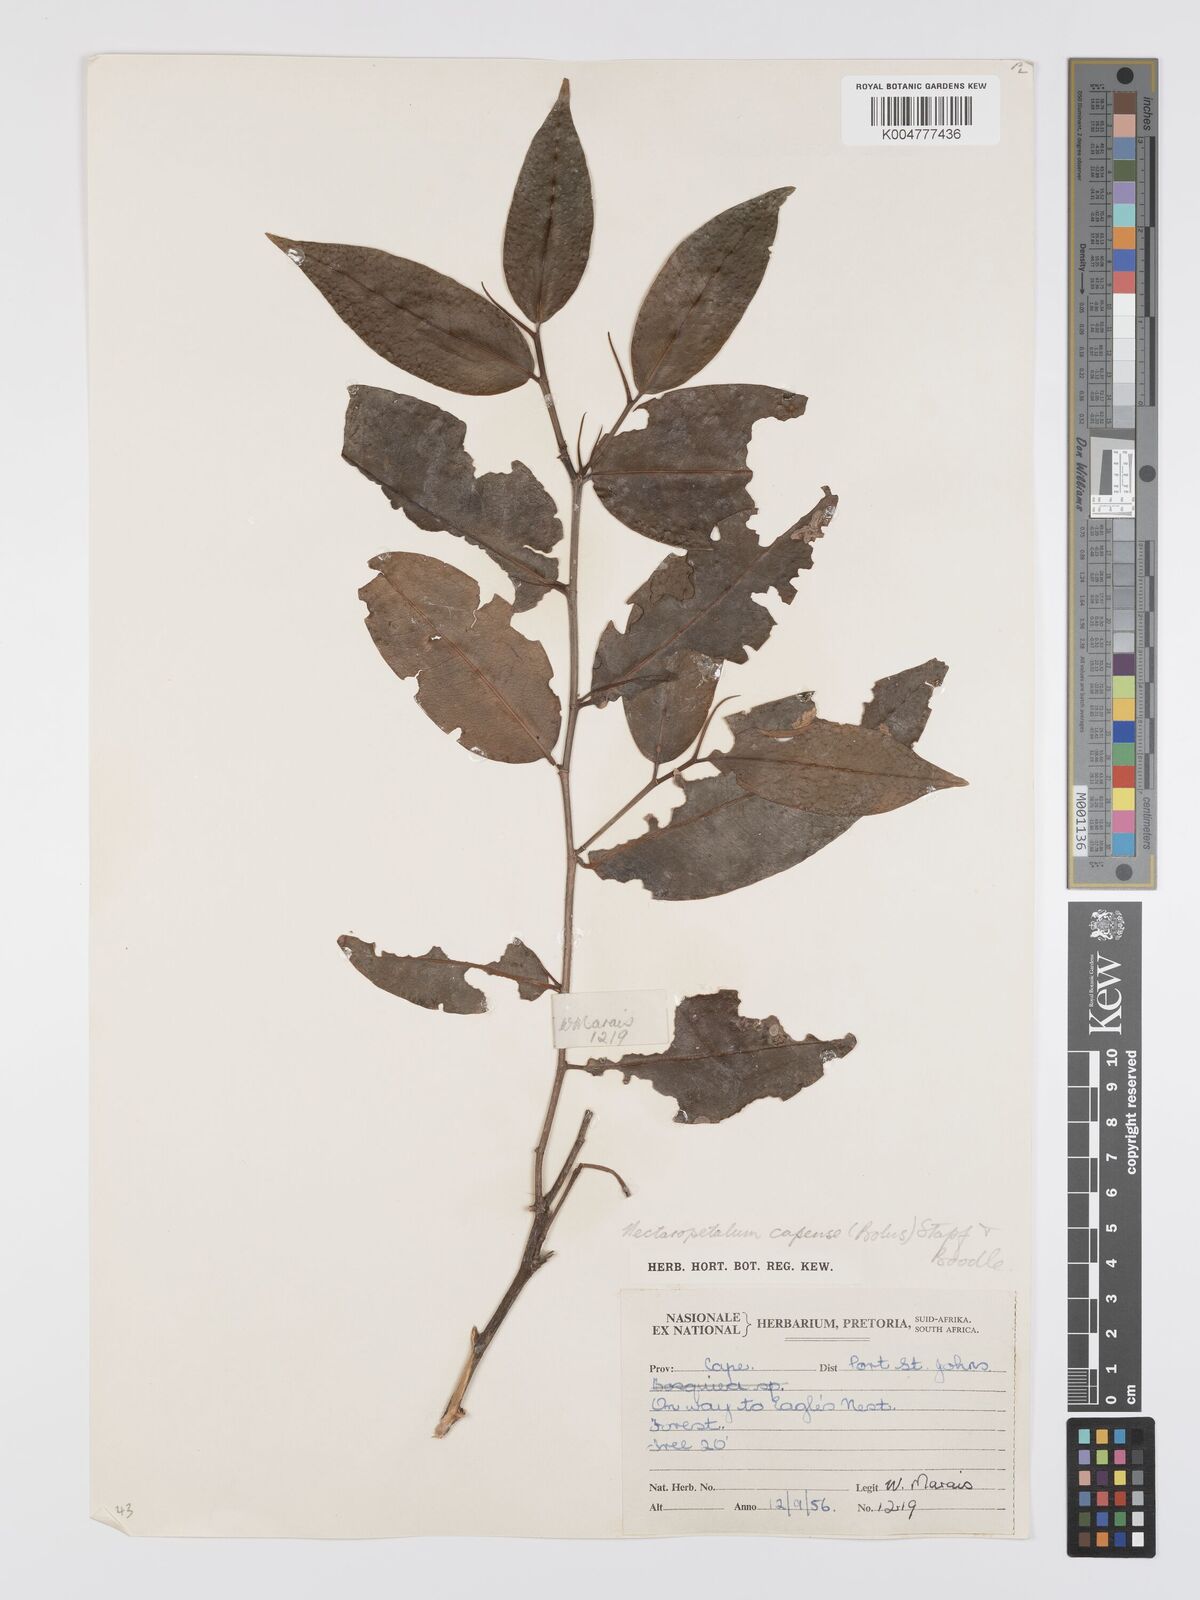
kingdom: Plantae
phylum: Tracheophyta
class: Magnoliopsida
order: Malpighiales
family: Erythroxylaceae
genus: Nectaropetalum
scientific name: Nectaropetalum capense
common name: Southern false coca-tree
